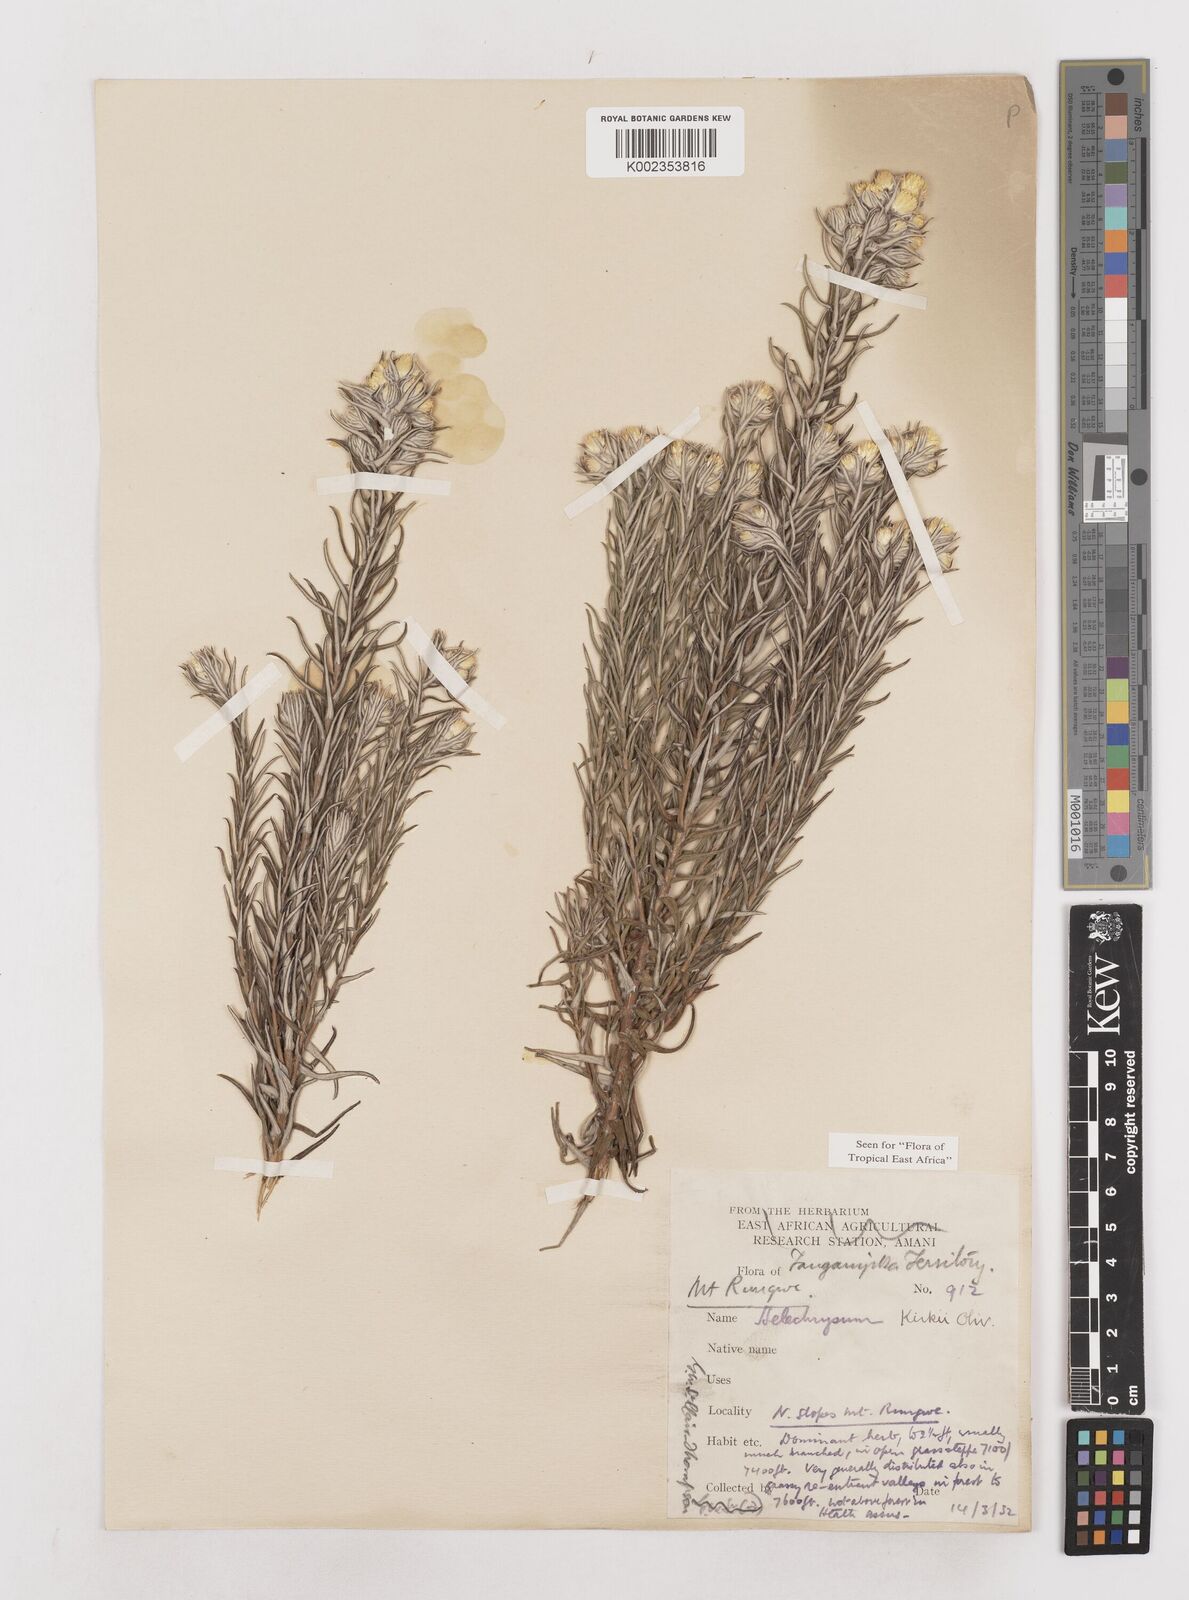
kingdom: Plantae
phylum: Tracheophyta
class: Magnoliopsida
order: Asterales
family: Asteraceae
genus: Helichrysum
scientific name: Helichrysum kirkii
